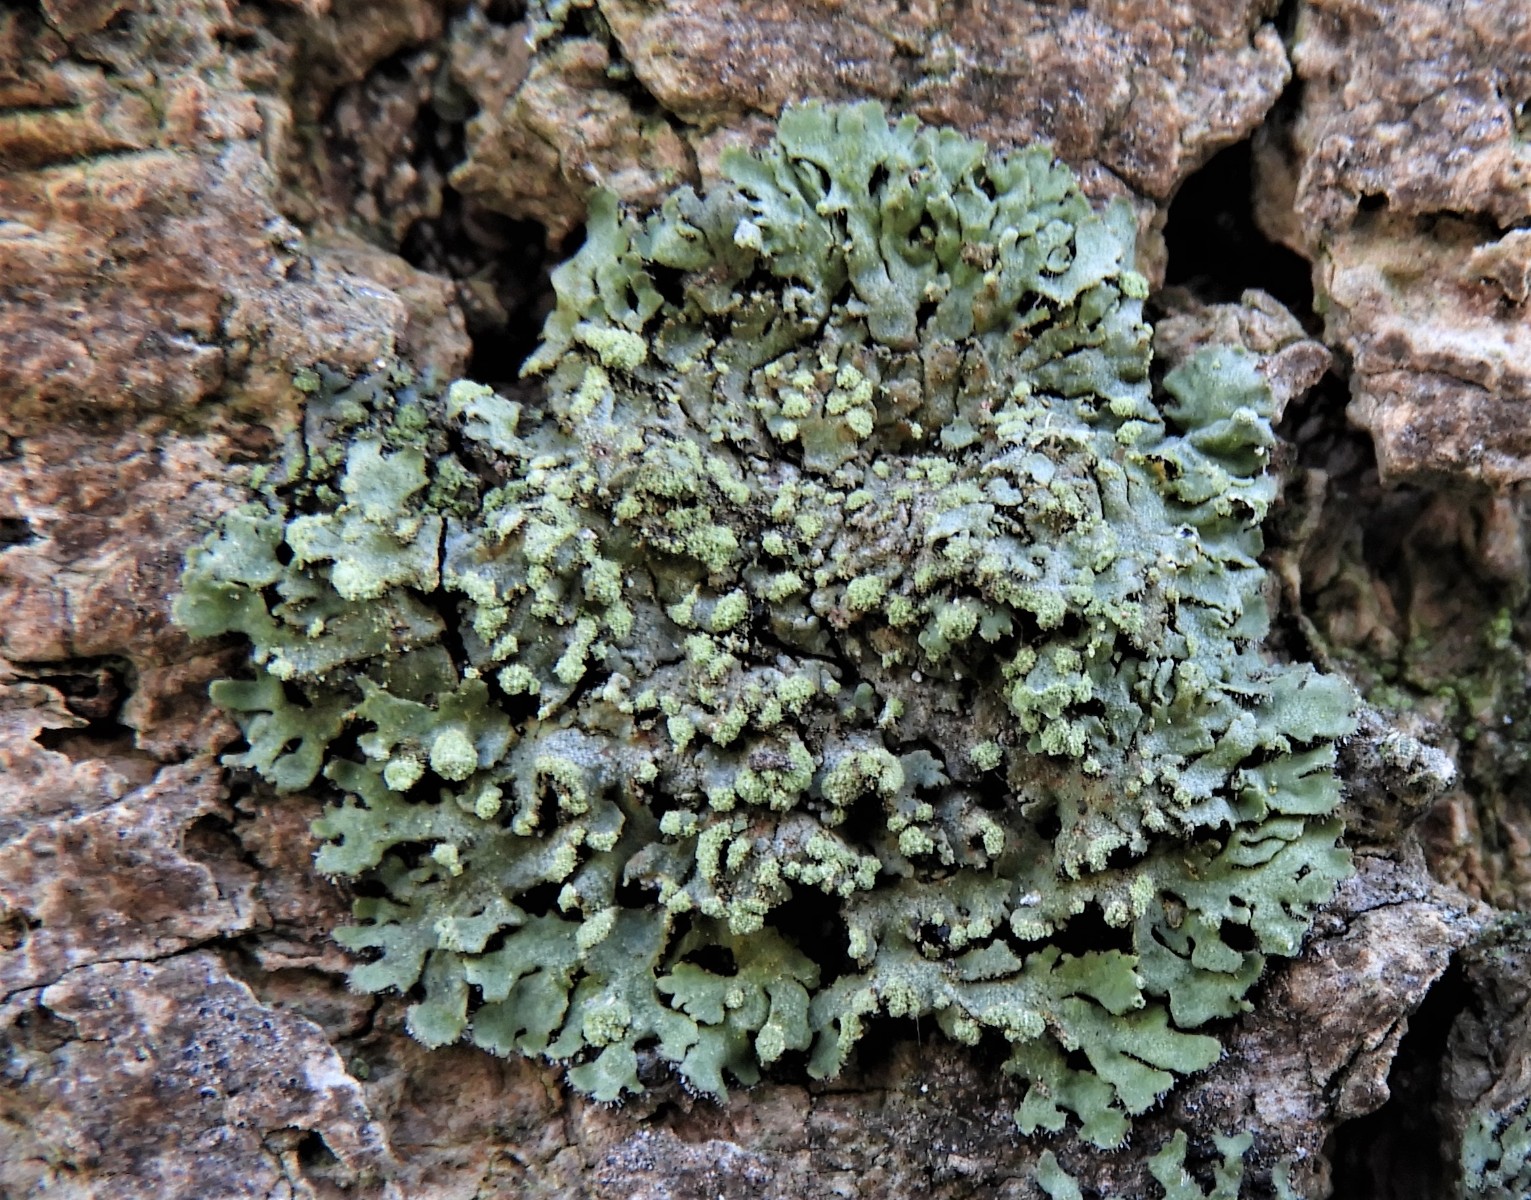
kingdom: Fungi
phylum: Ascomycota
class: Lecanoromycetes
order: Caliciales
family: Physciaceae
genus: Phaeophyscia
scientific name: Phaeophyscia orbicularis
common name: grågrøn rosetlav
